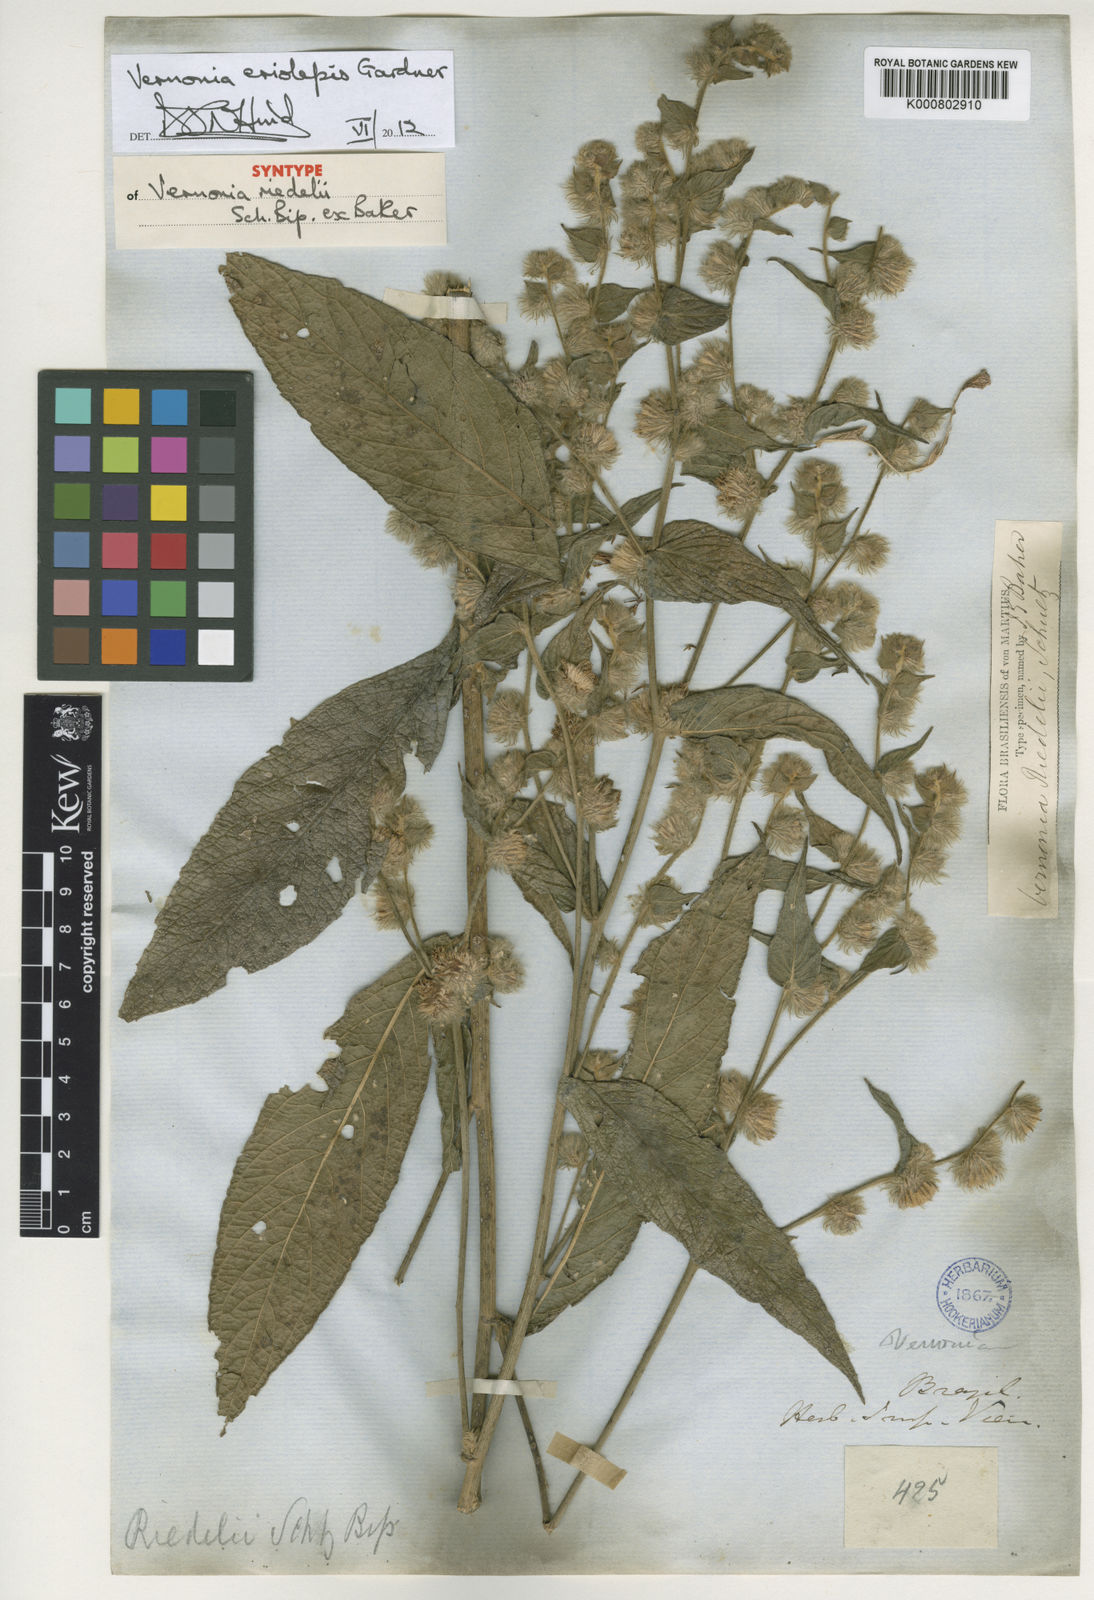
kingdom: Plantae
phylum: Tracheophyta
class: Magnoliopsida
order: Asterales
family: Asteraceae
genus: Lepidaploa
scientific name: Lepidaploa eriolepis
